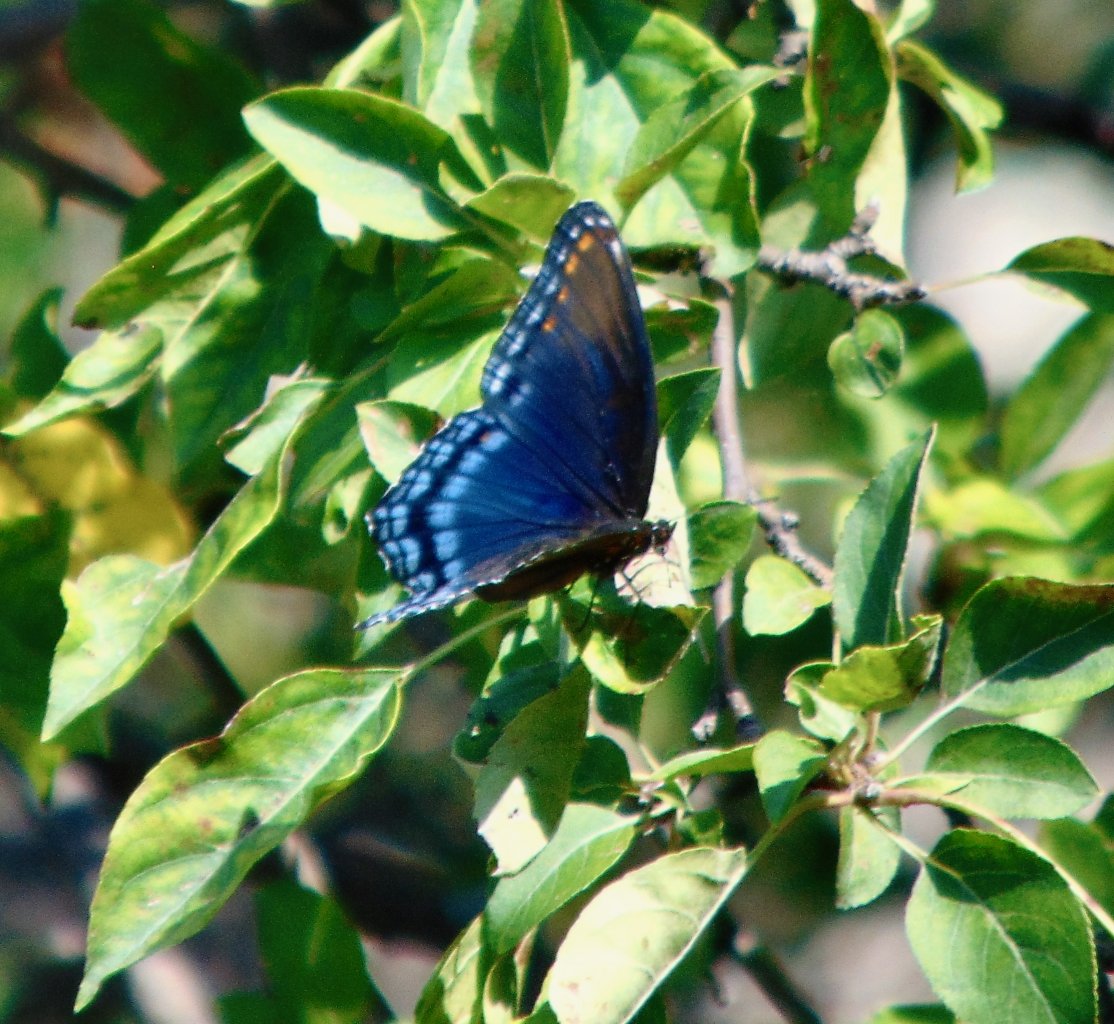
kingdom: Animalia
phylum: Arthropoda
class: Insecta
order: Lepidoptera
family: Nymphalidae
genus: Limenitis
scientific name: Limenitis astyanax
